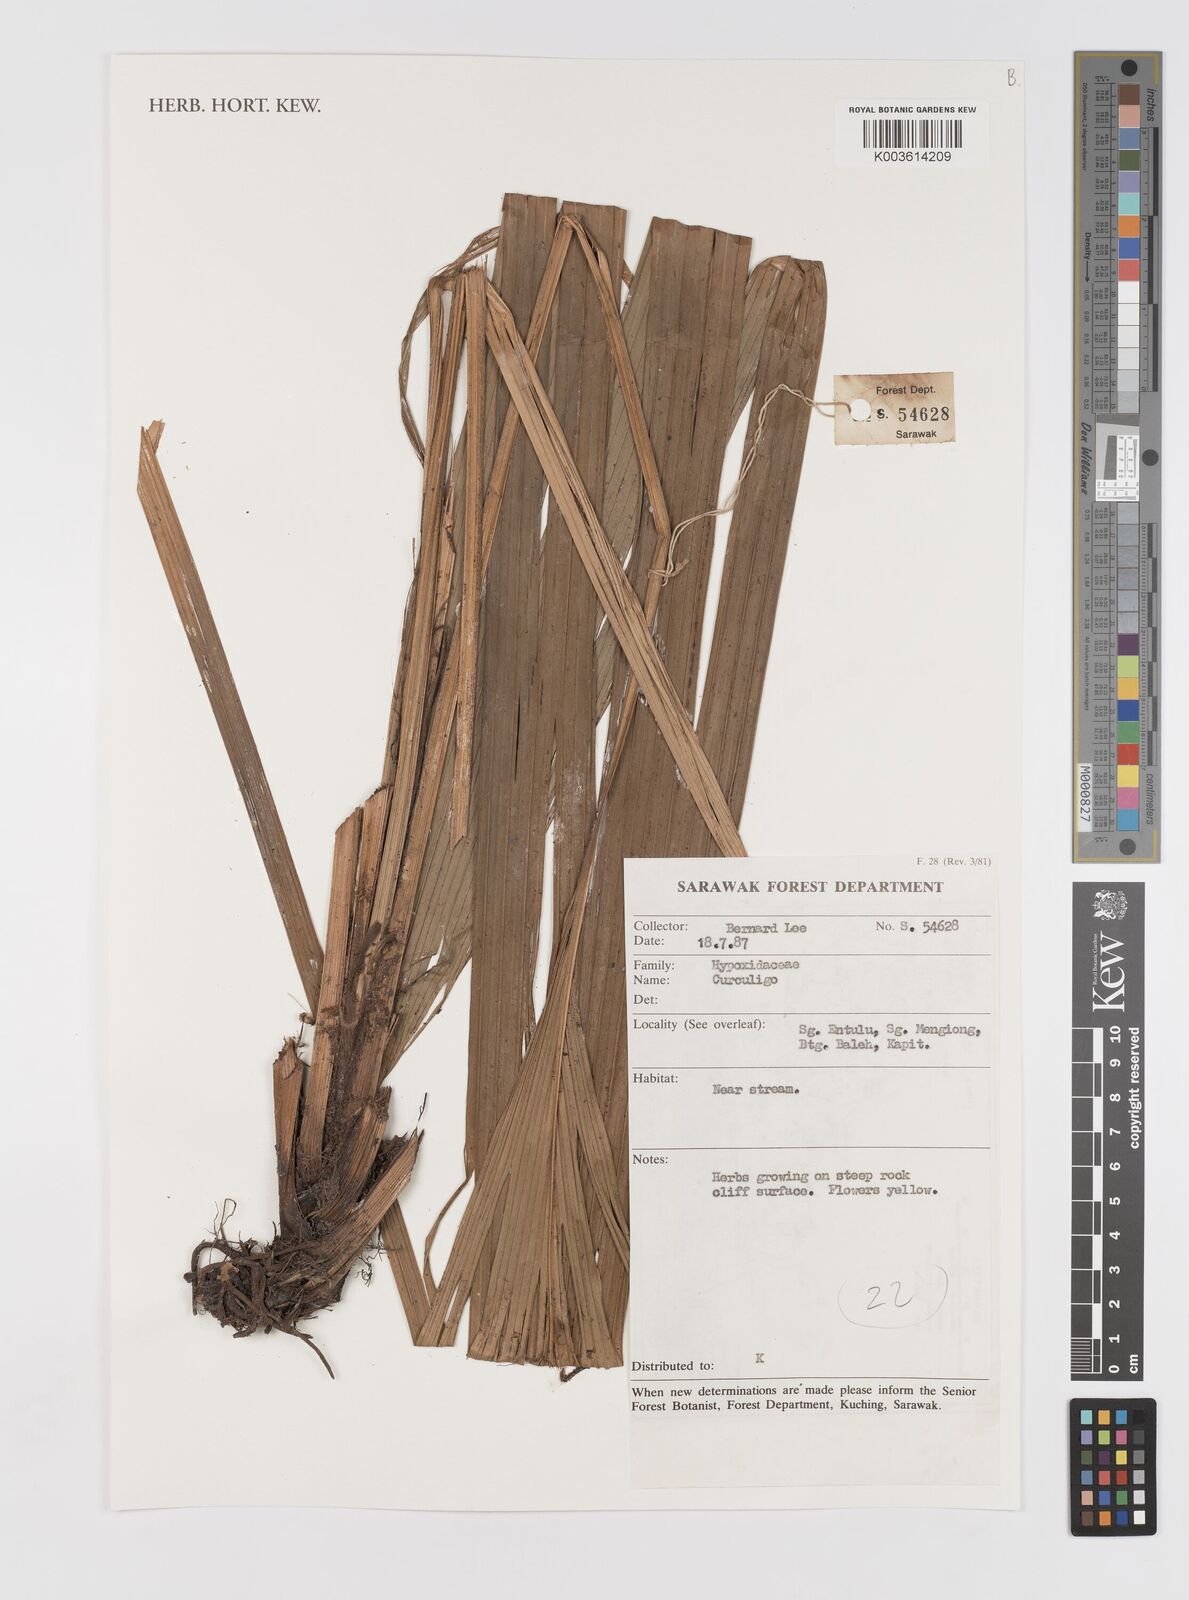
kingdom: Plantae
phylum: Tracheophyta
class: Liliopsida
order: Asparagales
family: Hypoxidaceae
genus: Curculigo
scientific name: Curculigo
